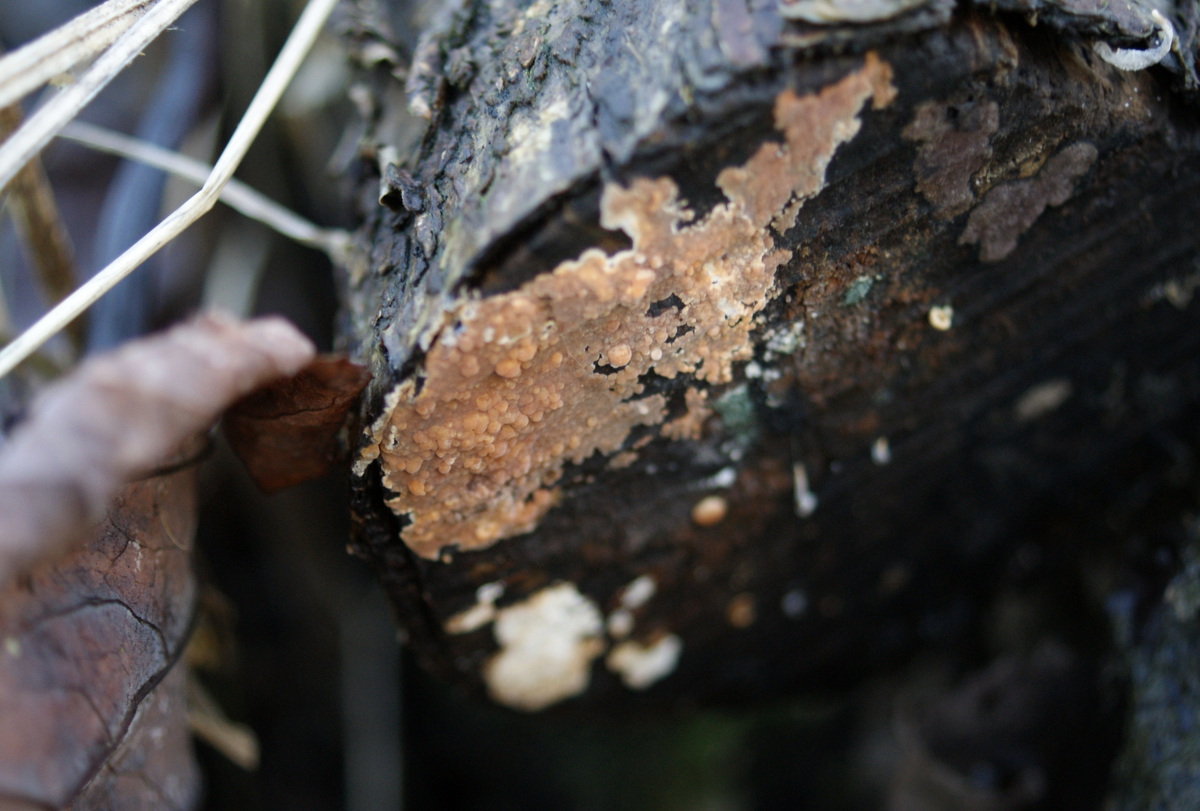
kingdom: Fungi
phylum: Basidiomycota
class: Agaricomycetes
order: Russulales
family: Peniophoraceae
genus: Peniophora
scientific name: Peniophora incarnata
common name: laksefarvet voksskind
